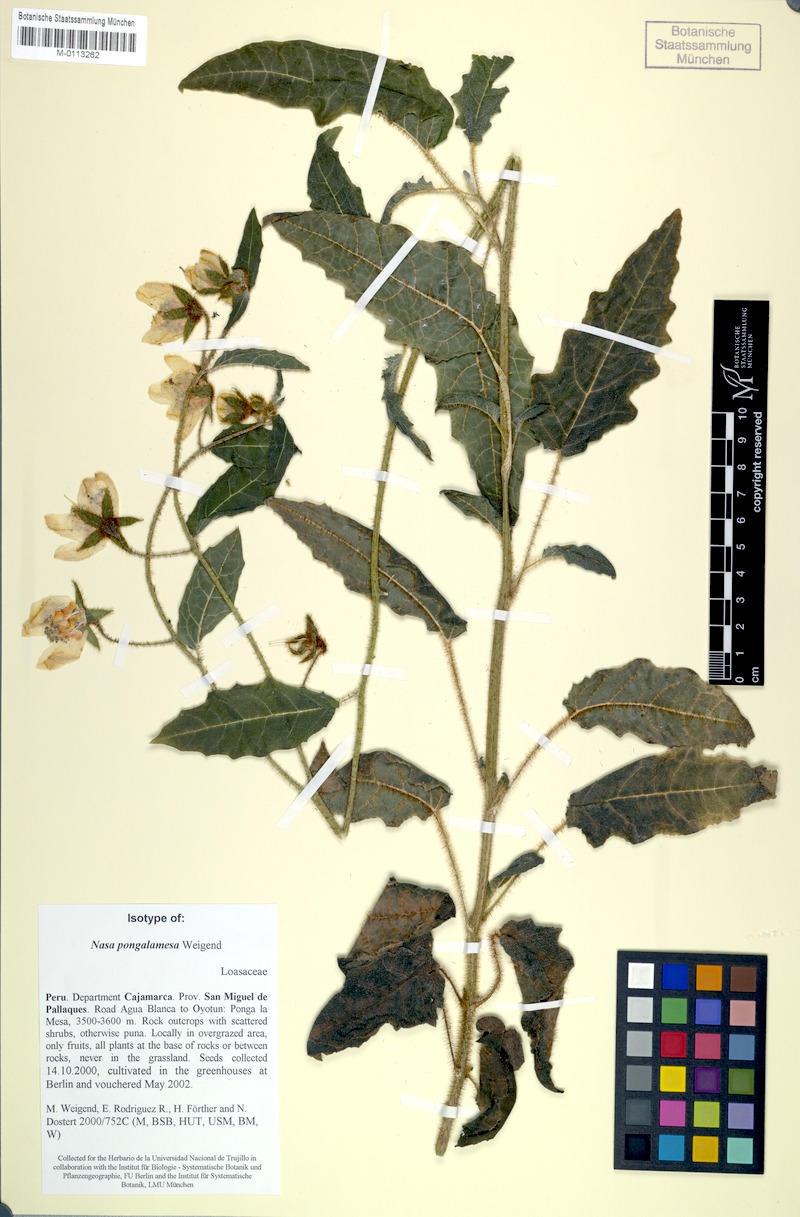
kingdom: Plantae
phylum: Tracheophyta
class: Magnoliopsida
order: Cornales
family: Loasaceae
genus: Nasa
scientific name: Nasa pongalamesa
